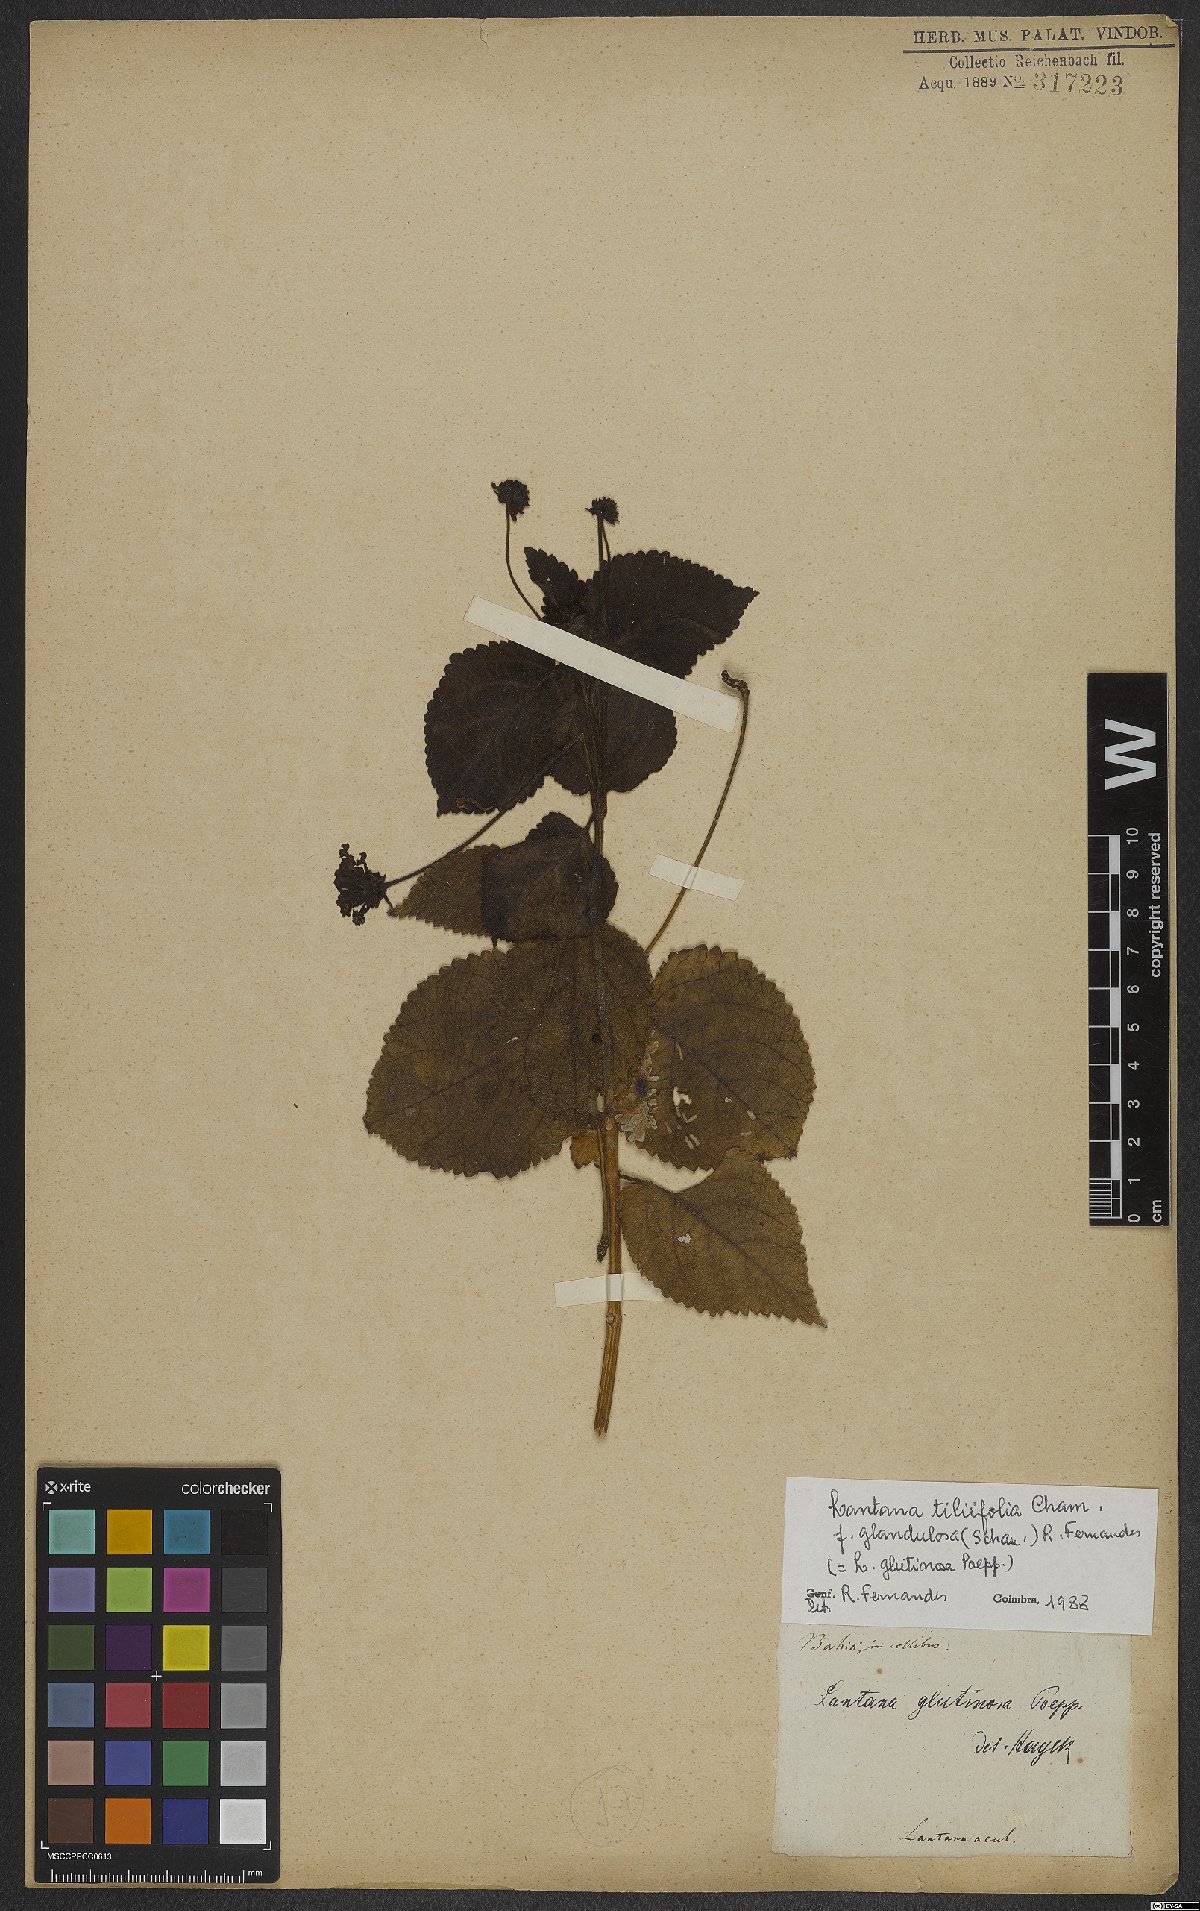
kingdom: Plantae
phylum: Tracheophyta
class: Magnoliopsida
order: Lamiales
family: Verbenaceae
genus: Lantana
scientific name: Lantana horrida
